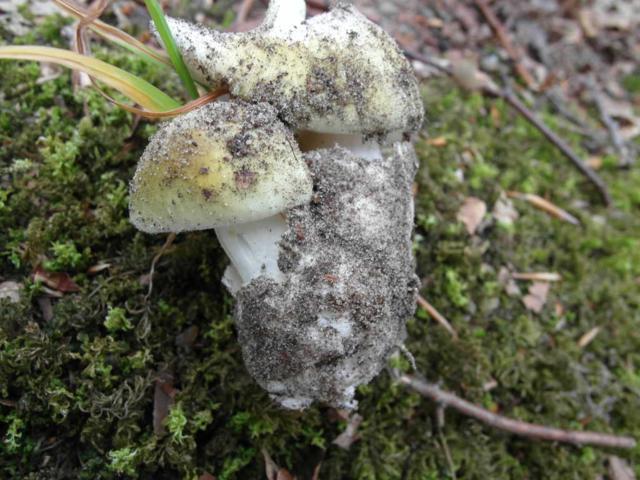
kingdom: Fungi
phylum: Basidiomycota
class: Agaricomycetes
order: Agaricales
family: Amanitaceae
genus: Amanita
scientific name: Amanita phalloides
